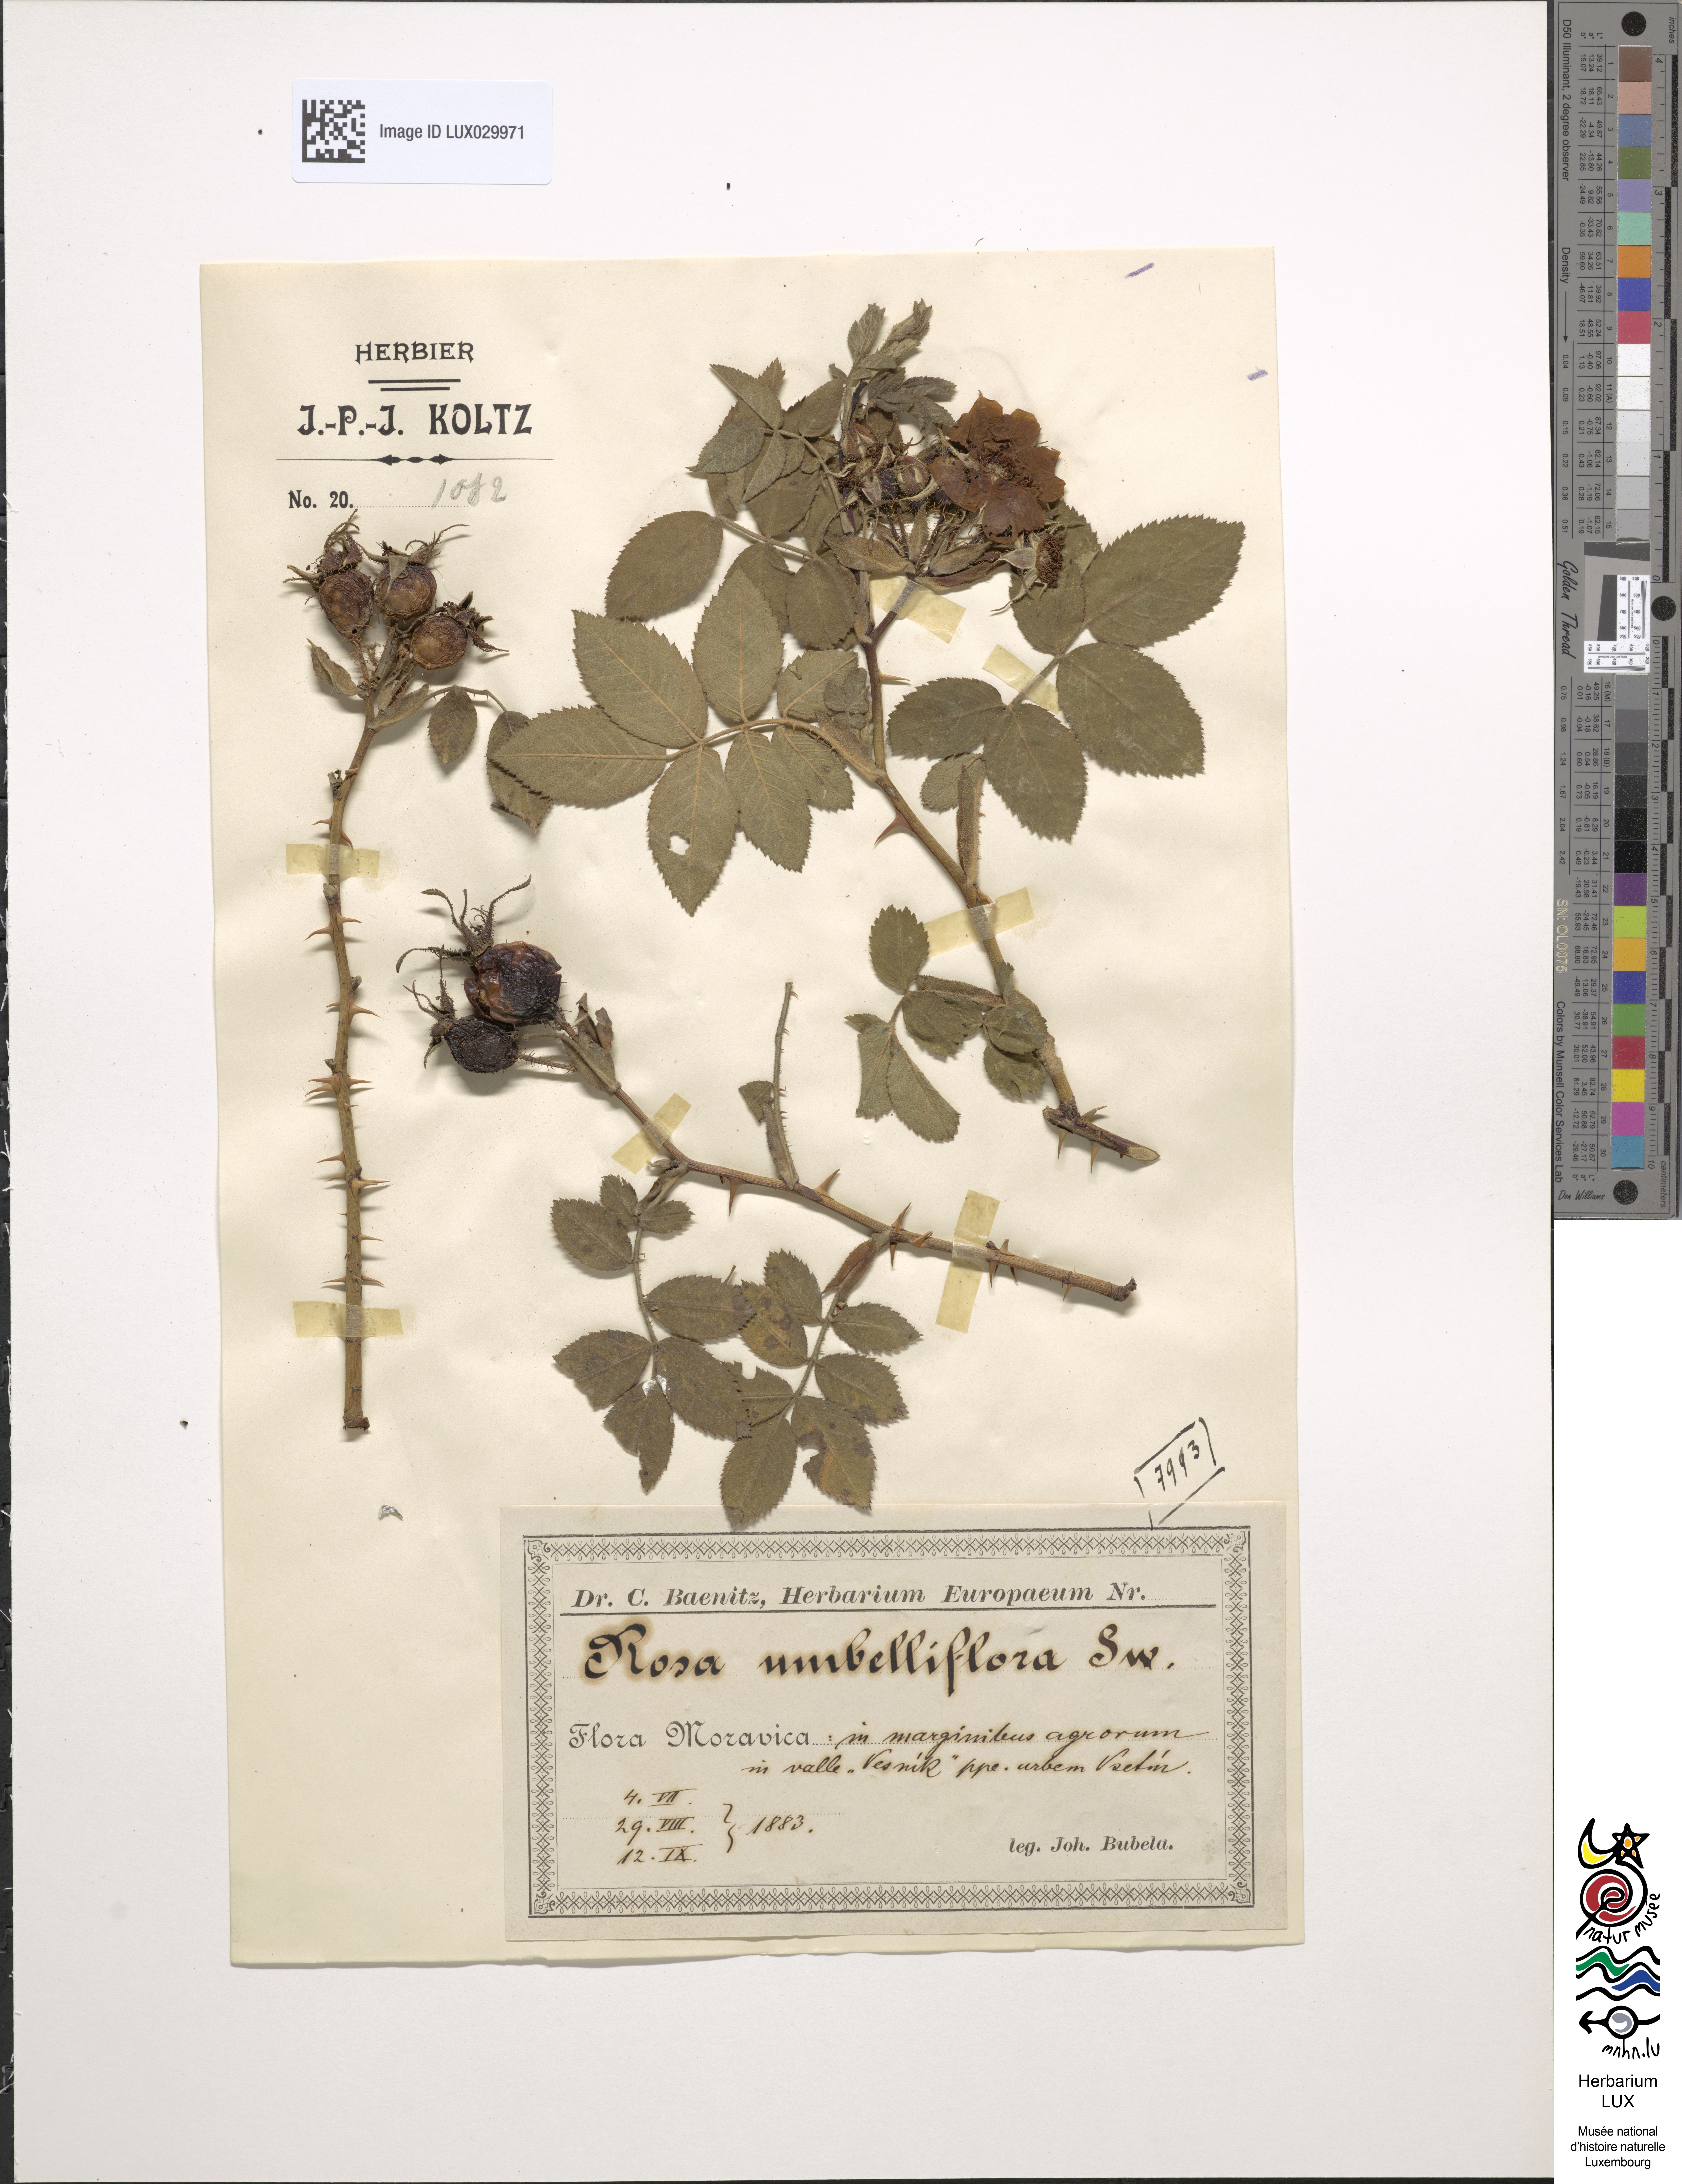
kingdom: Plantae
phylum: Tracheophyta
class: Magnoliopsida
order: Rosales
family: Rosaceae
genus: Rosa
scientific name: Rosa scabriuscula
